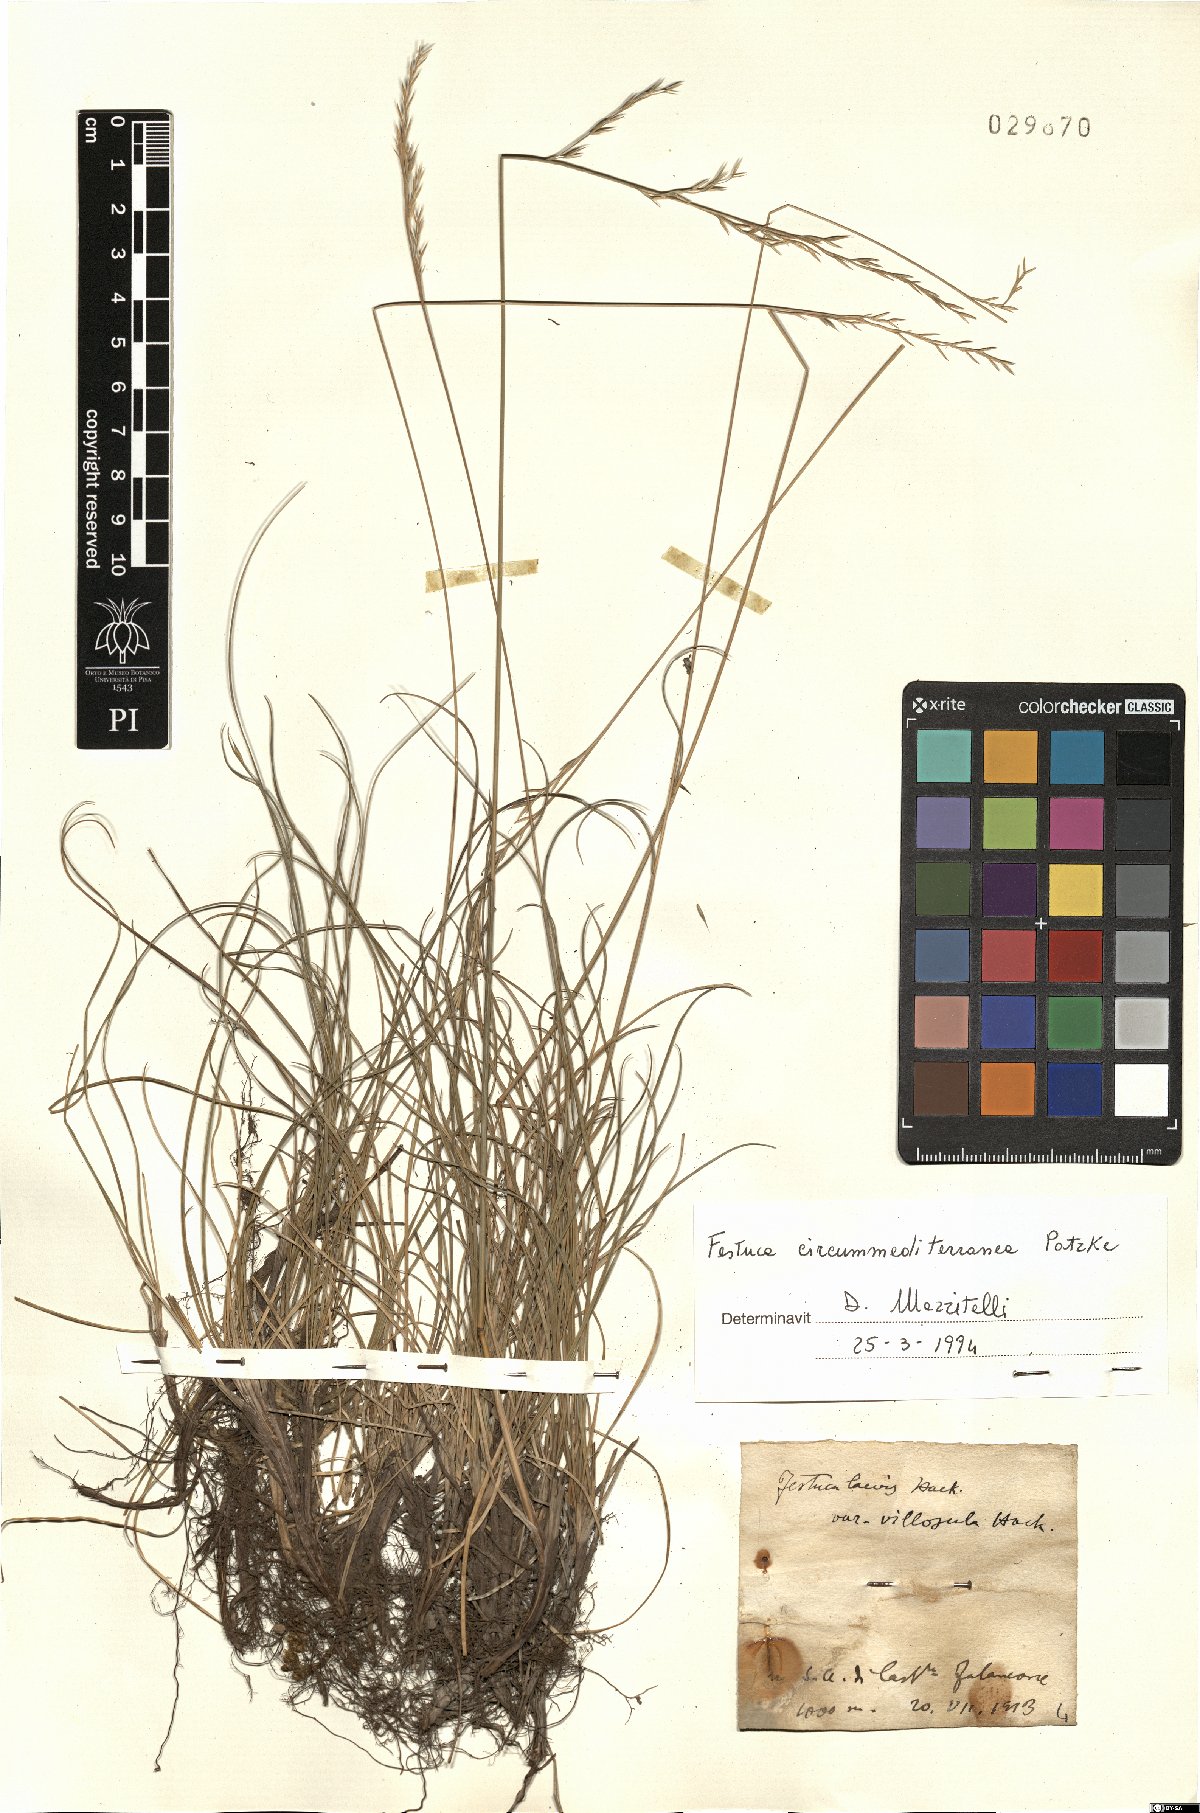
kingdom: Plantae
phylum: Tracheophyta
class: Liliopsida
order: Poales
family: Poaceae
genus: Festuca
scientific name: Festuca circummediterranea
